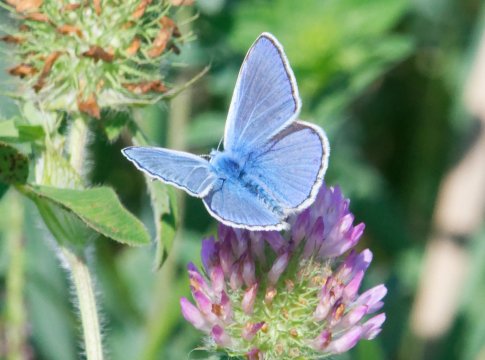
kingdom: Animalia
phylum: Arthropoda
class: Insecta
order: Lepidoptera
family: Lycaenidae
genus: Polyommatus
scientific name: Polyommatus icarus
